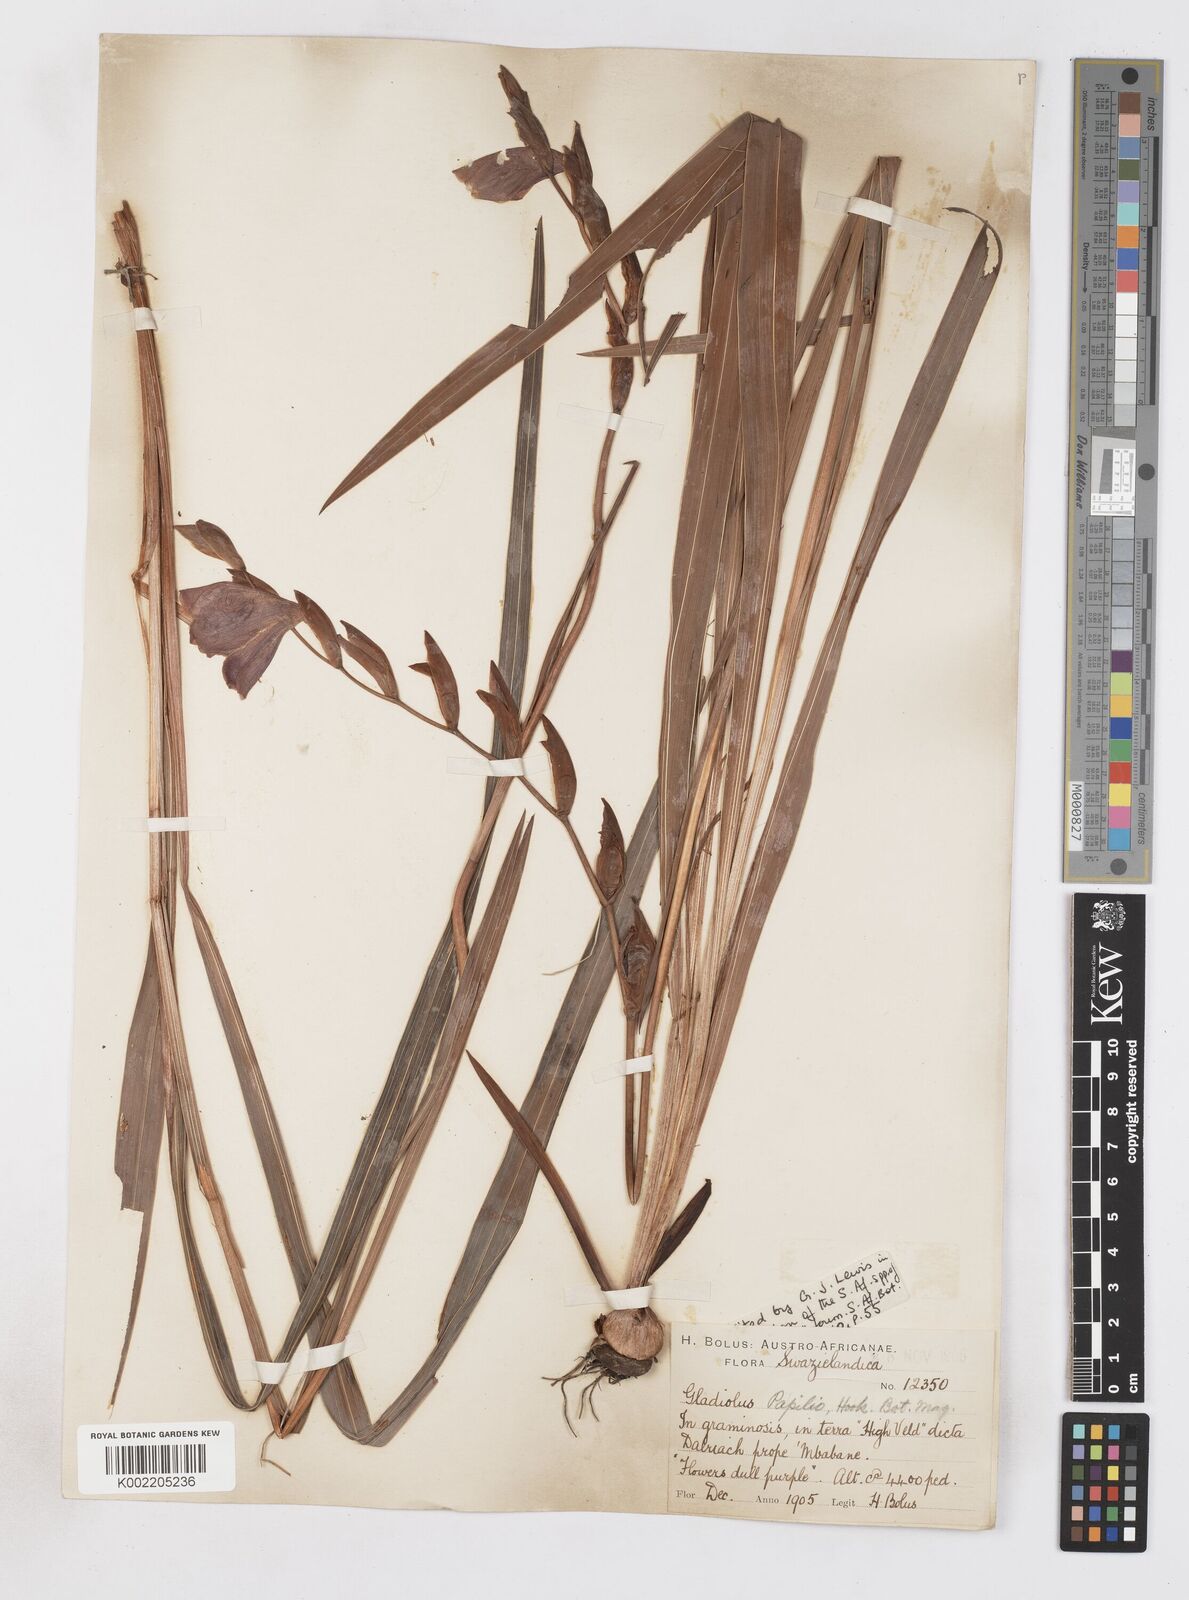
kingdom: Plantae
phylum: Tracheophyta
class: Liliopsida
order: Asparagales
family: Iridaceae
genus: Gladiolus
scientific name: Gladiolus papilio
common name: Goldblotch gladiolus
